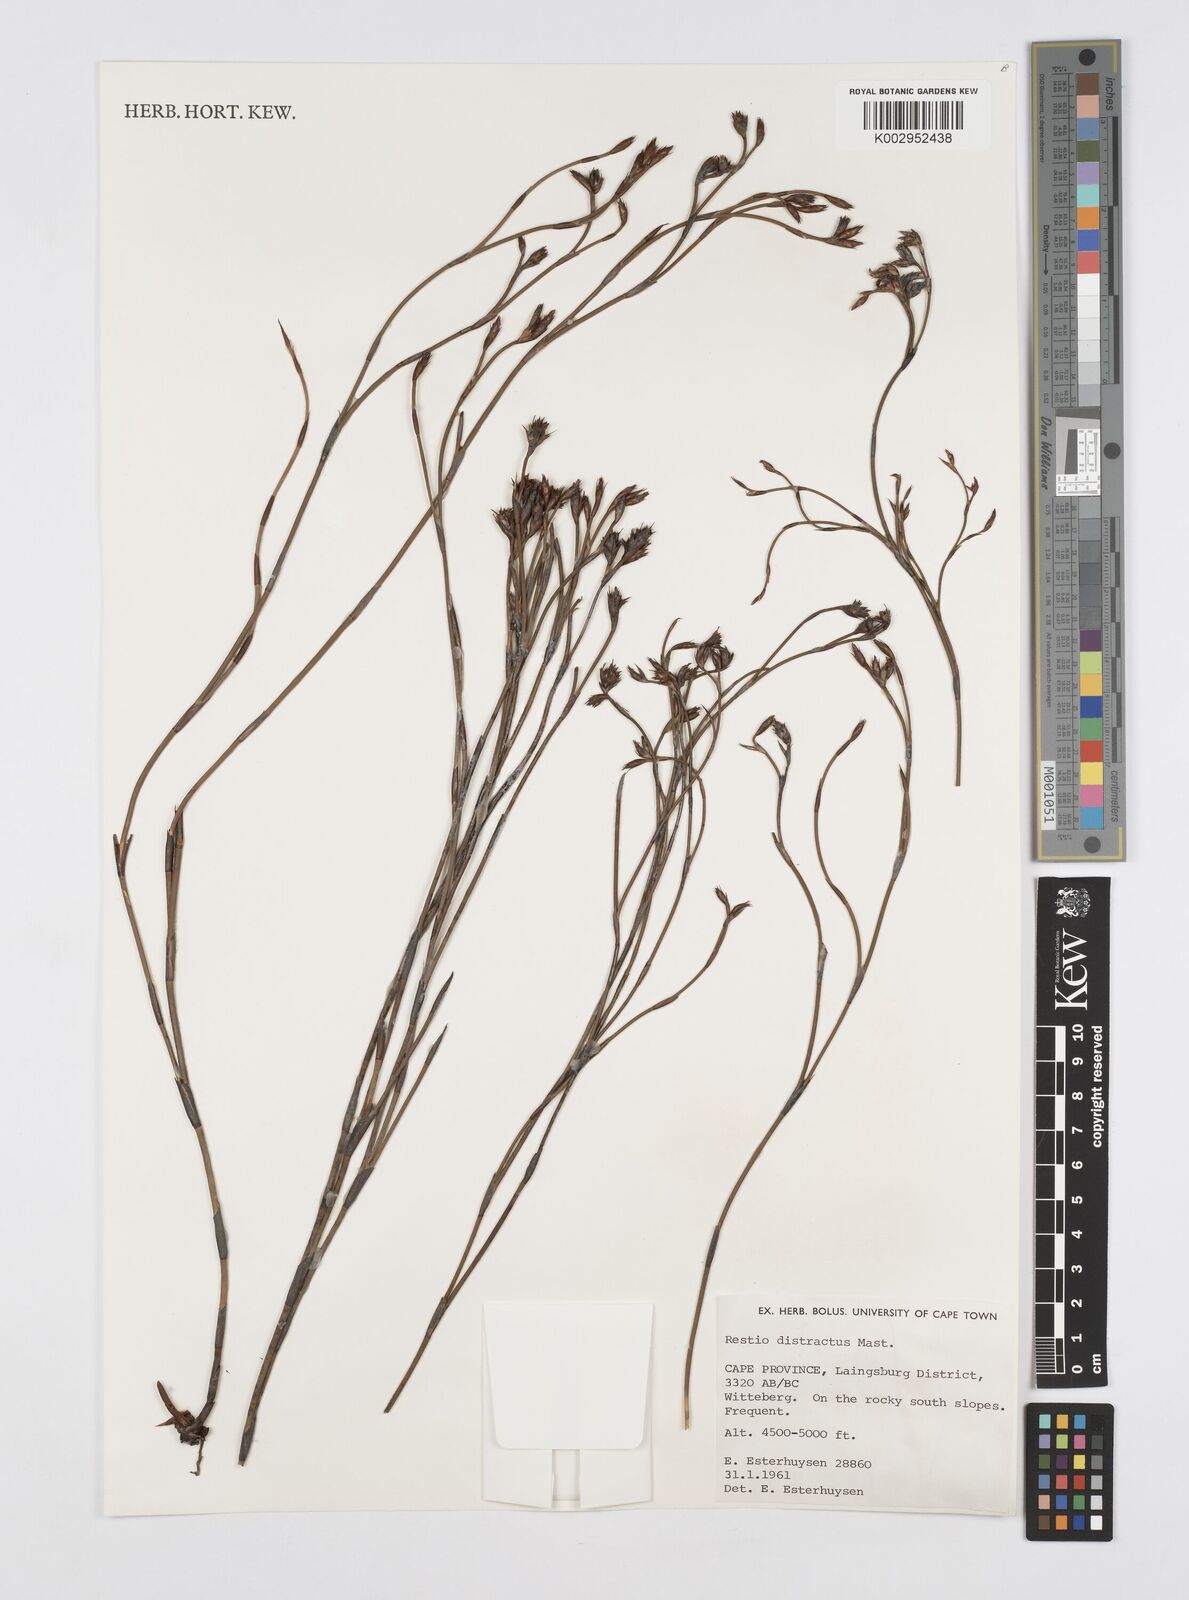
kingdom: Plantae
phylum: Tracheophyta
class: Liliopsida
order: Poales
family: Restionaceae
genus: Restio
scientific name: Restio distractus
